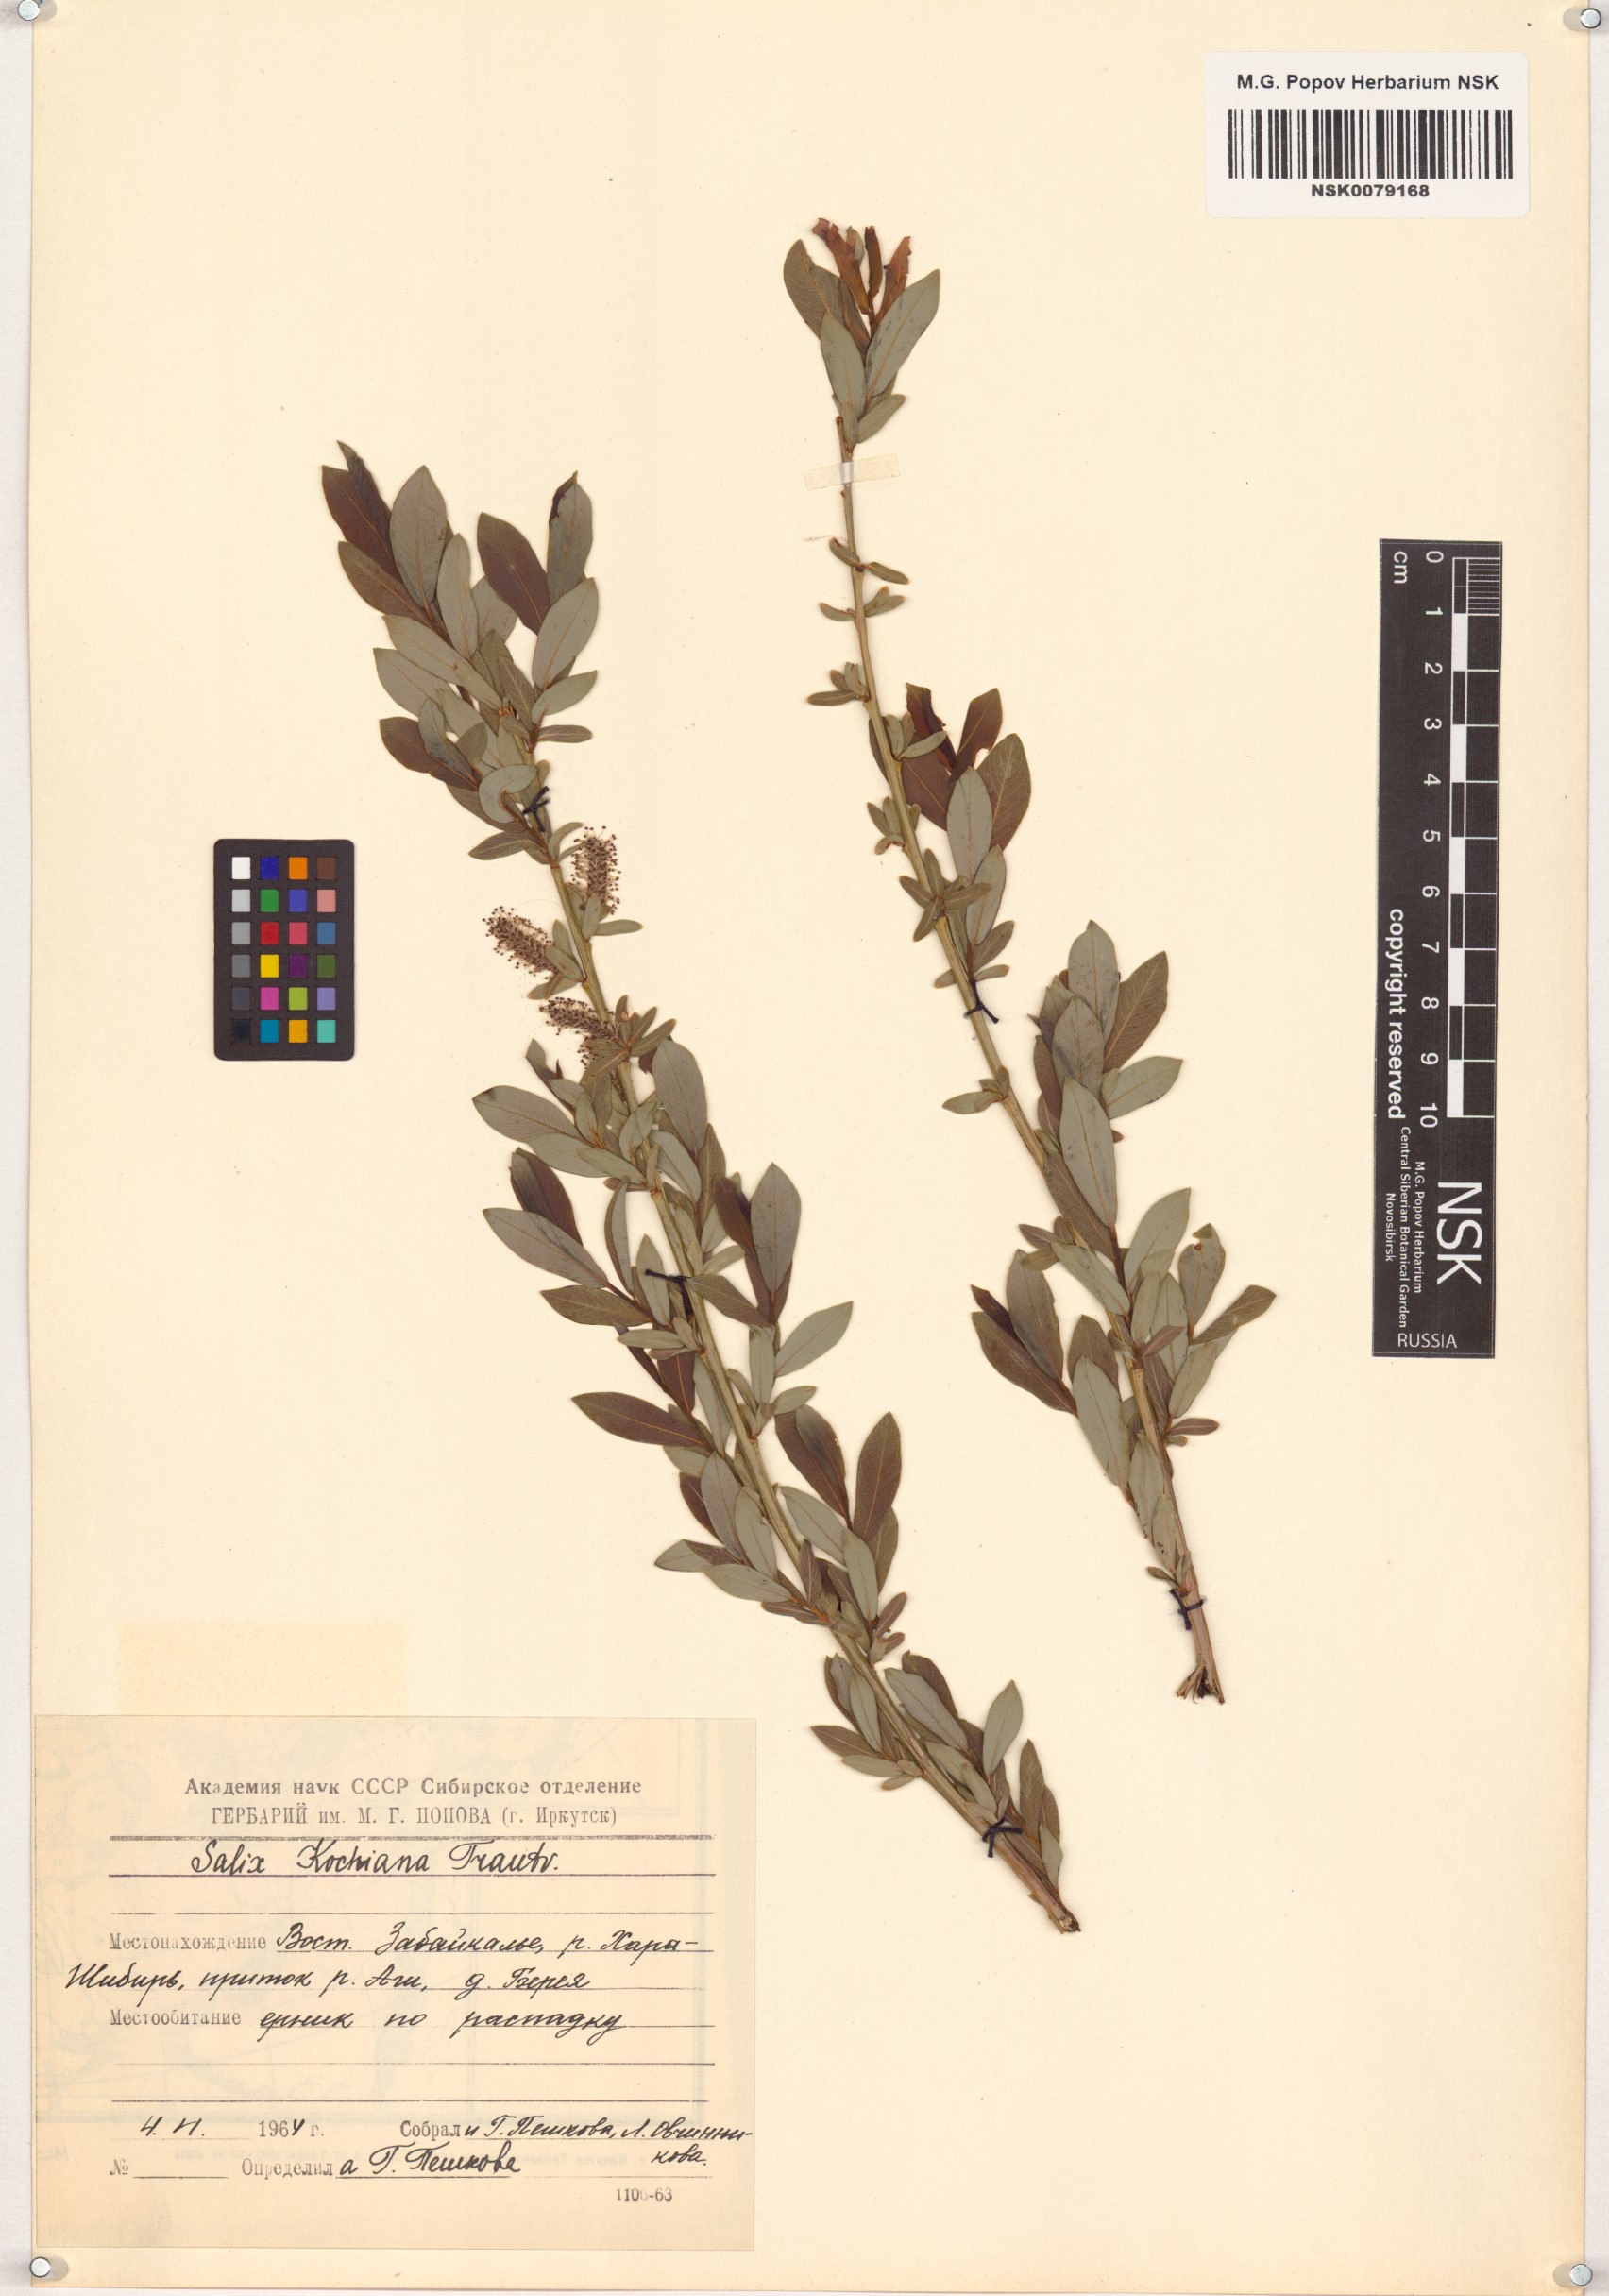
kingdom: Plantae
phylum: Tracheophyta
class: Magnoliopsida
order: Malpighiales
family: Salicaceae
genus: Salix
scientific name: Salix kochiana
